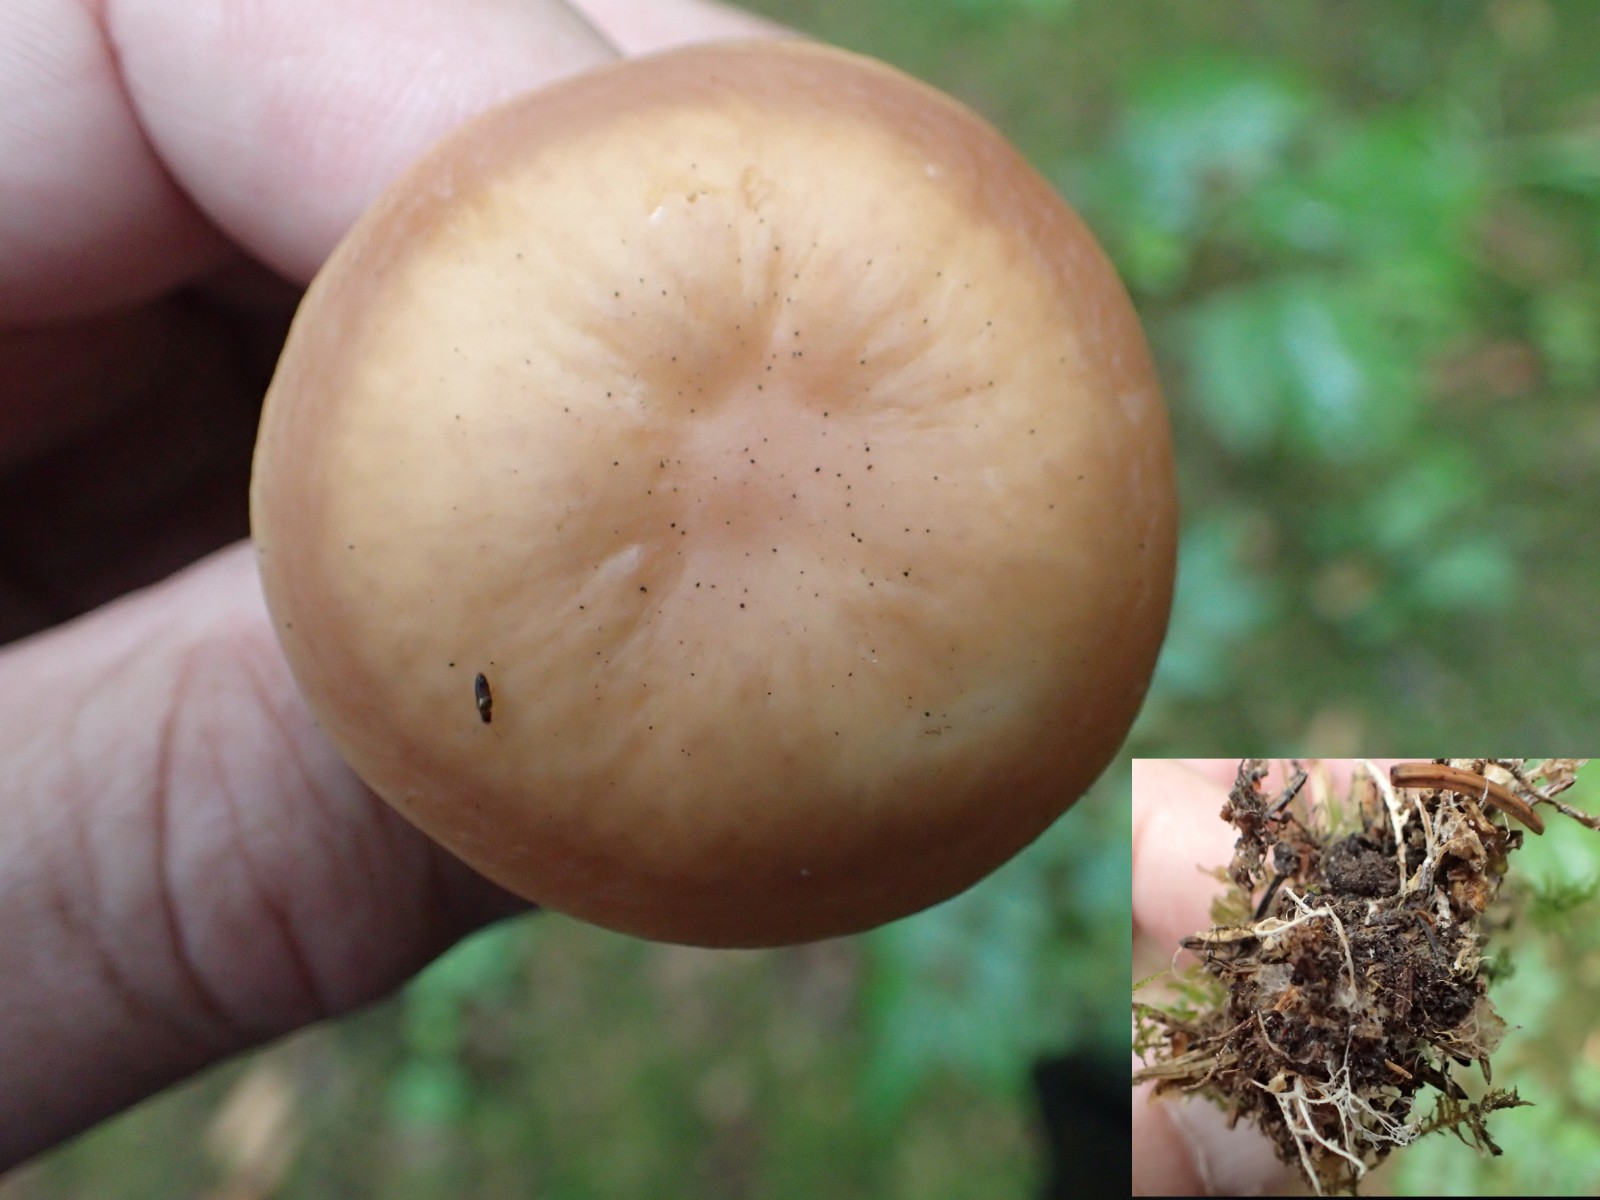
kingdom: Fungi
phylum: Basidiomycota
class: Agaricomycetes
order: Agaricales
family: Omphalotaceae
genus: Gymnopus
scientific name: Gymnopus
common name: fladhat
